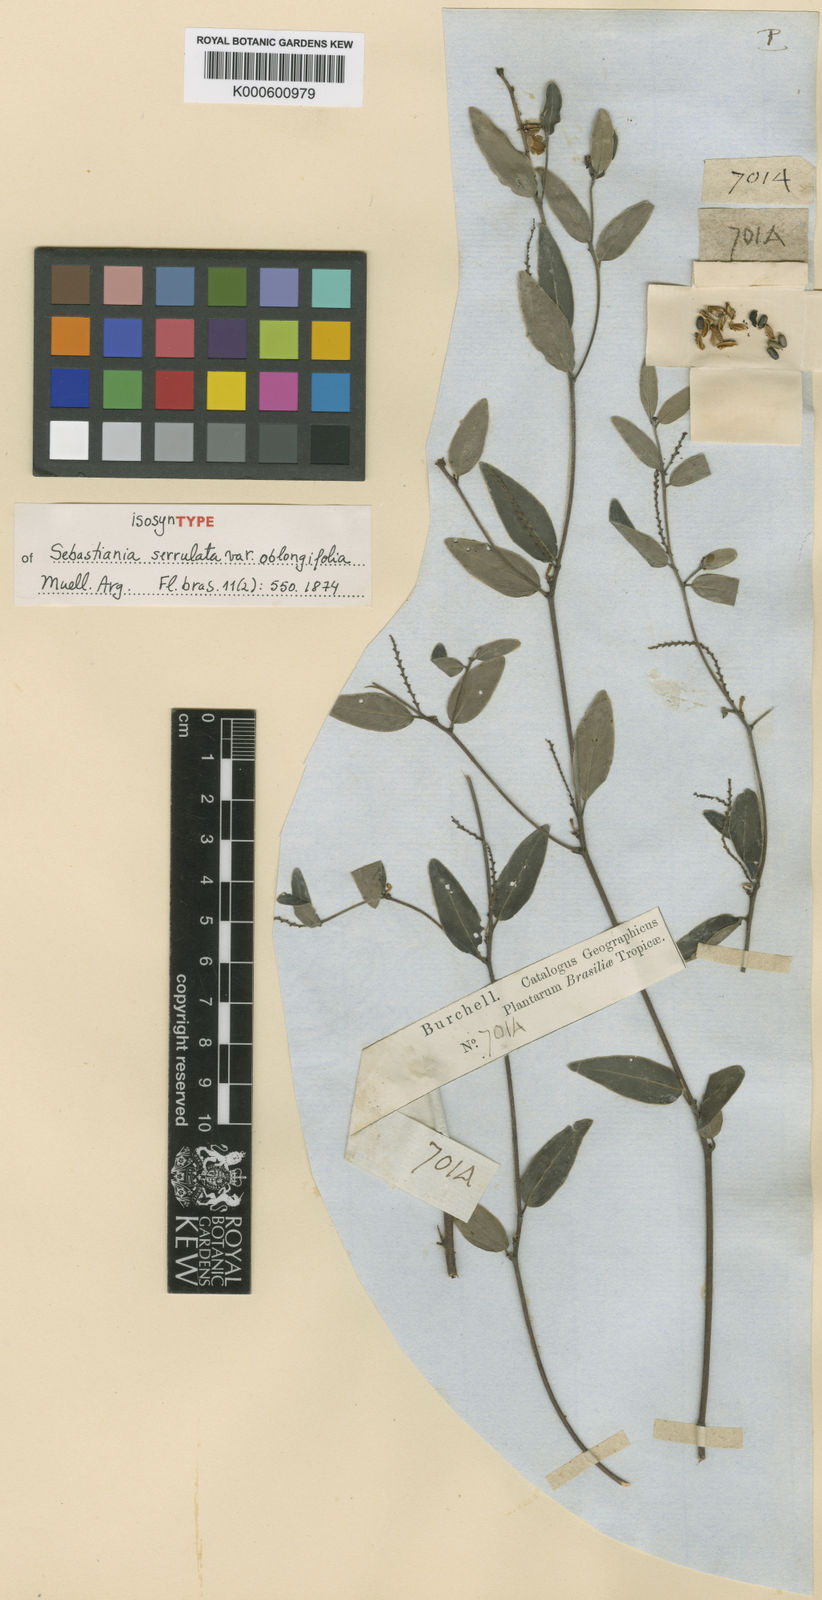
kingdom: Plantae
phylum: Tracheophyta
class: Magnoliopsida
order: Malpighiales
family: Euphorbiaceae
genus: Sebastiania
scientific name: Sebastiania
